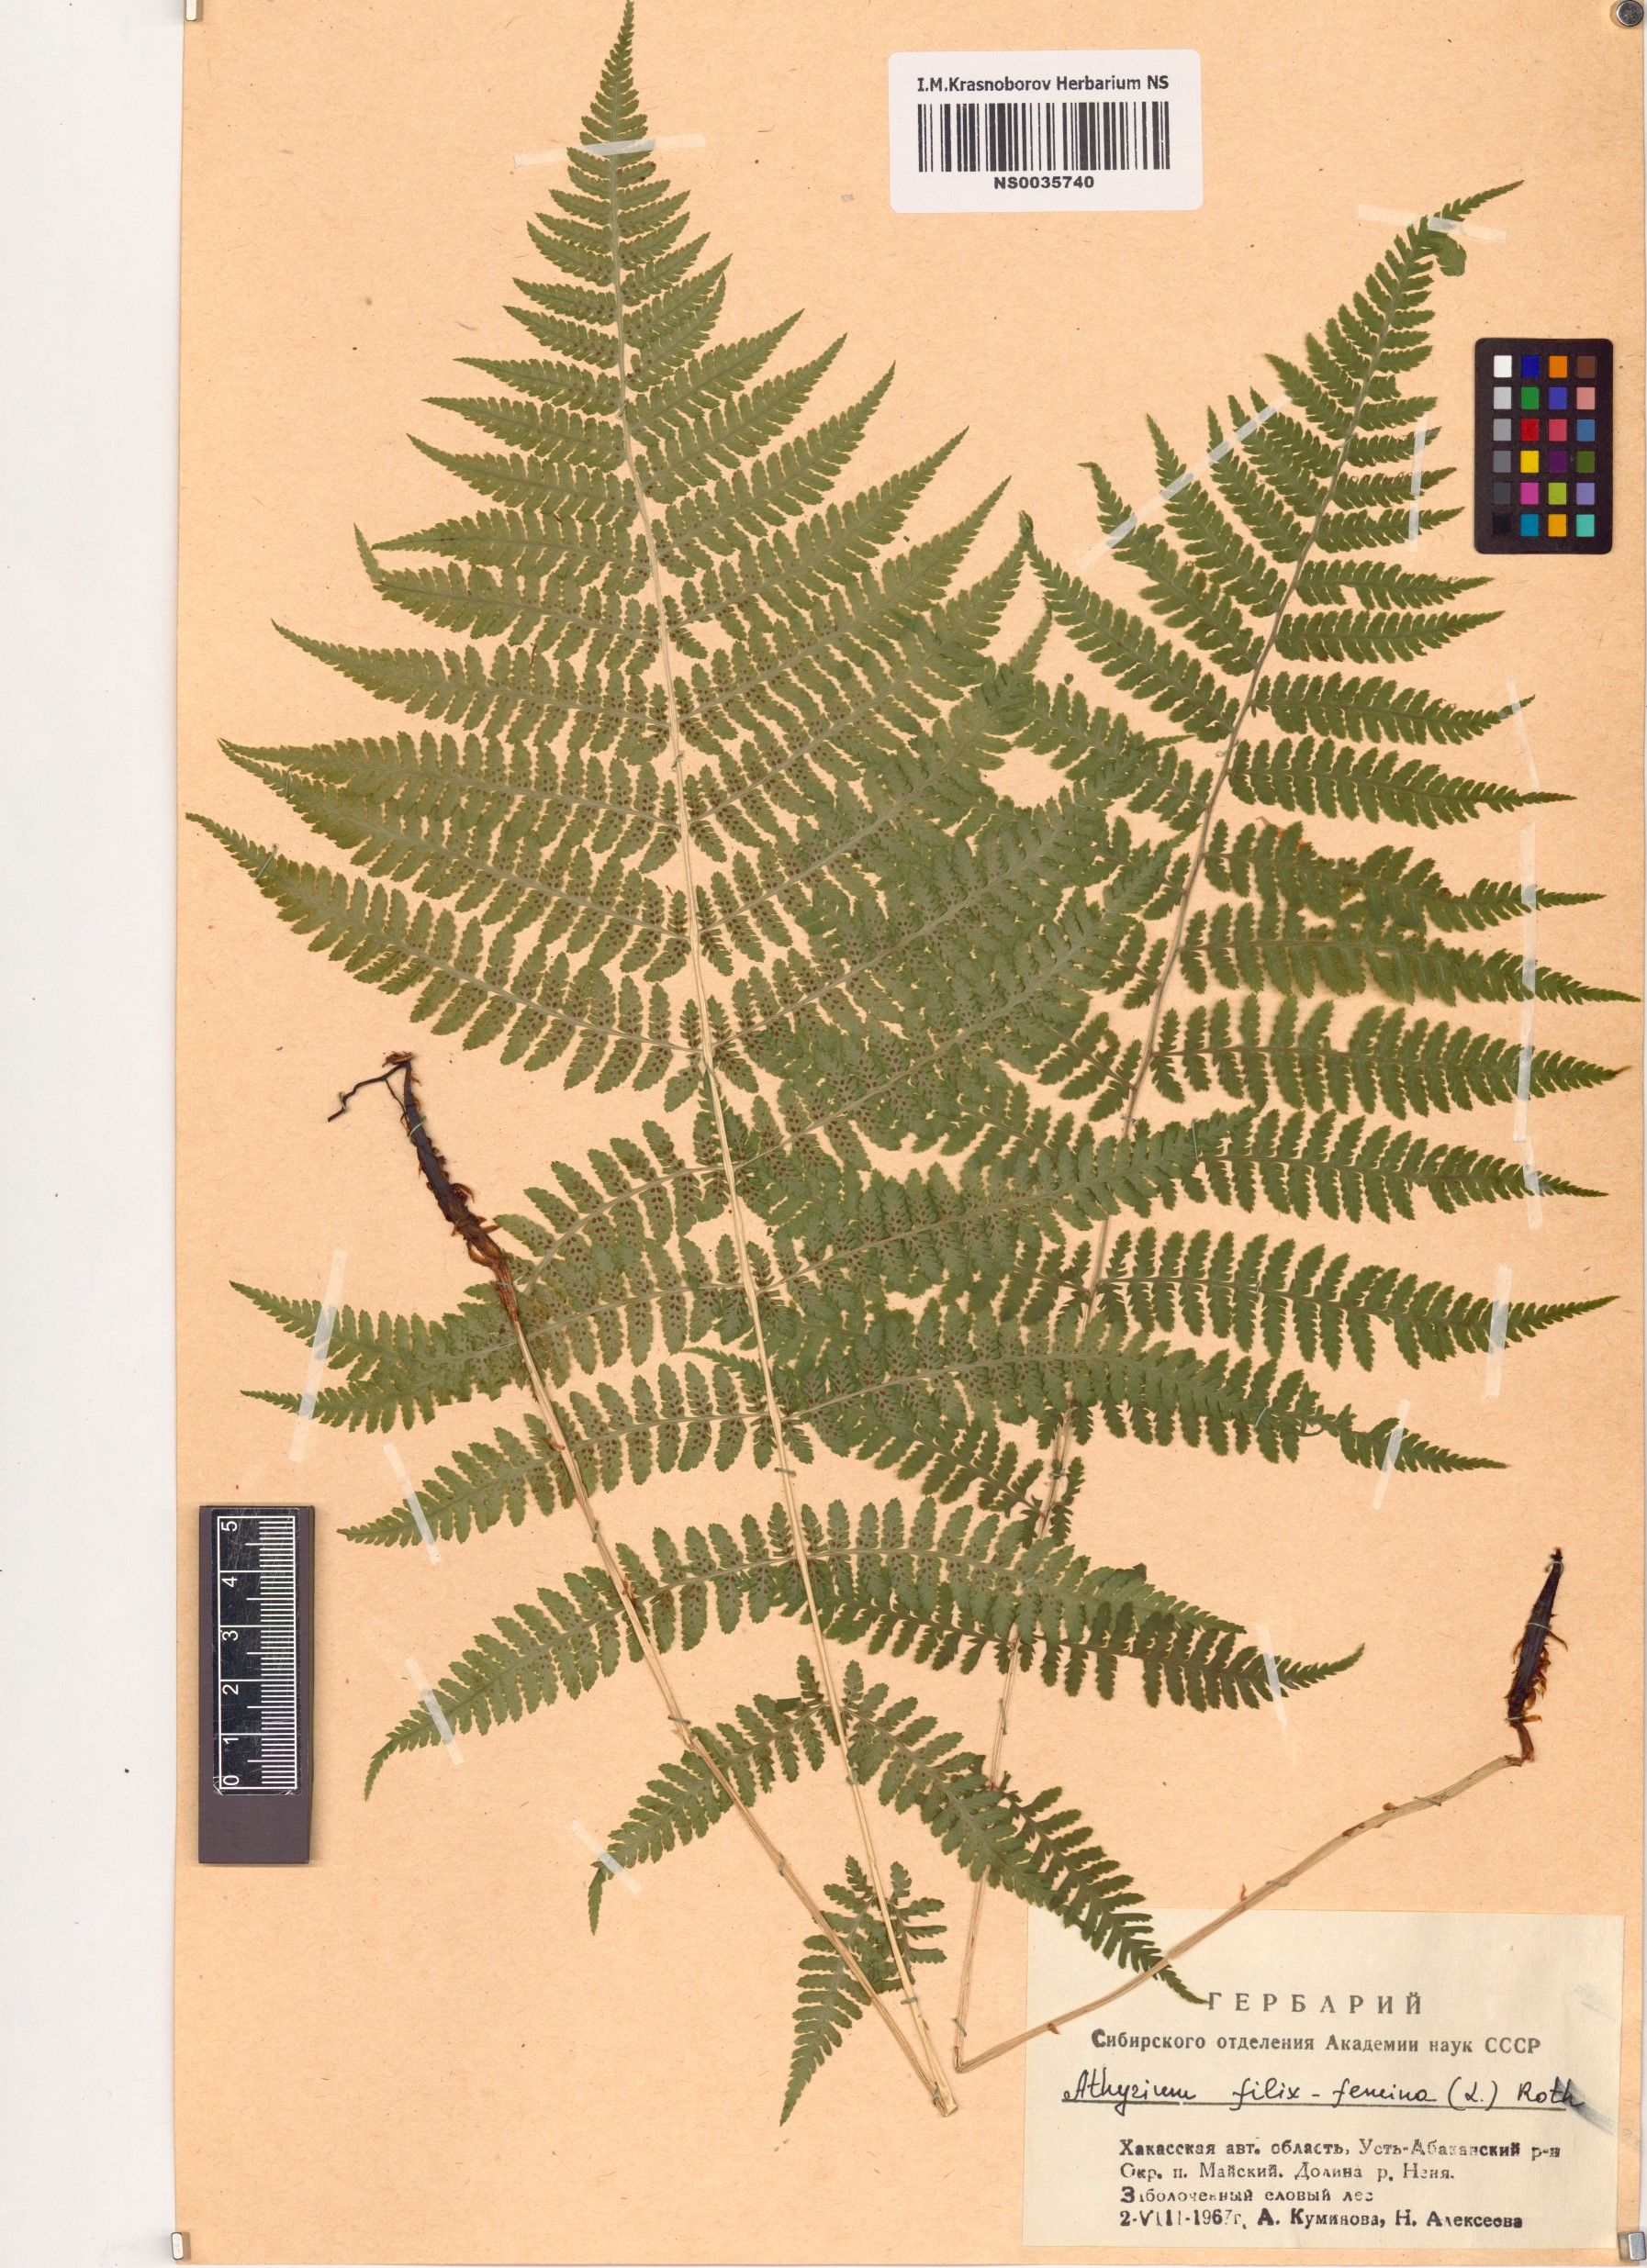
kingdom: Plantae
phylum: Tracheophyta
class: Polypodiopsida
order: Polypodiales
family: Athyriaceae
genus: Athyrium
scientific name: Athyrium filix-femina
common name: Lady fern
